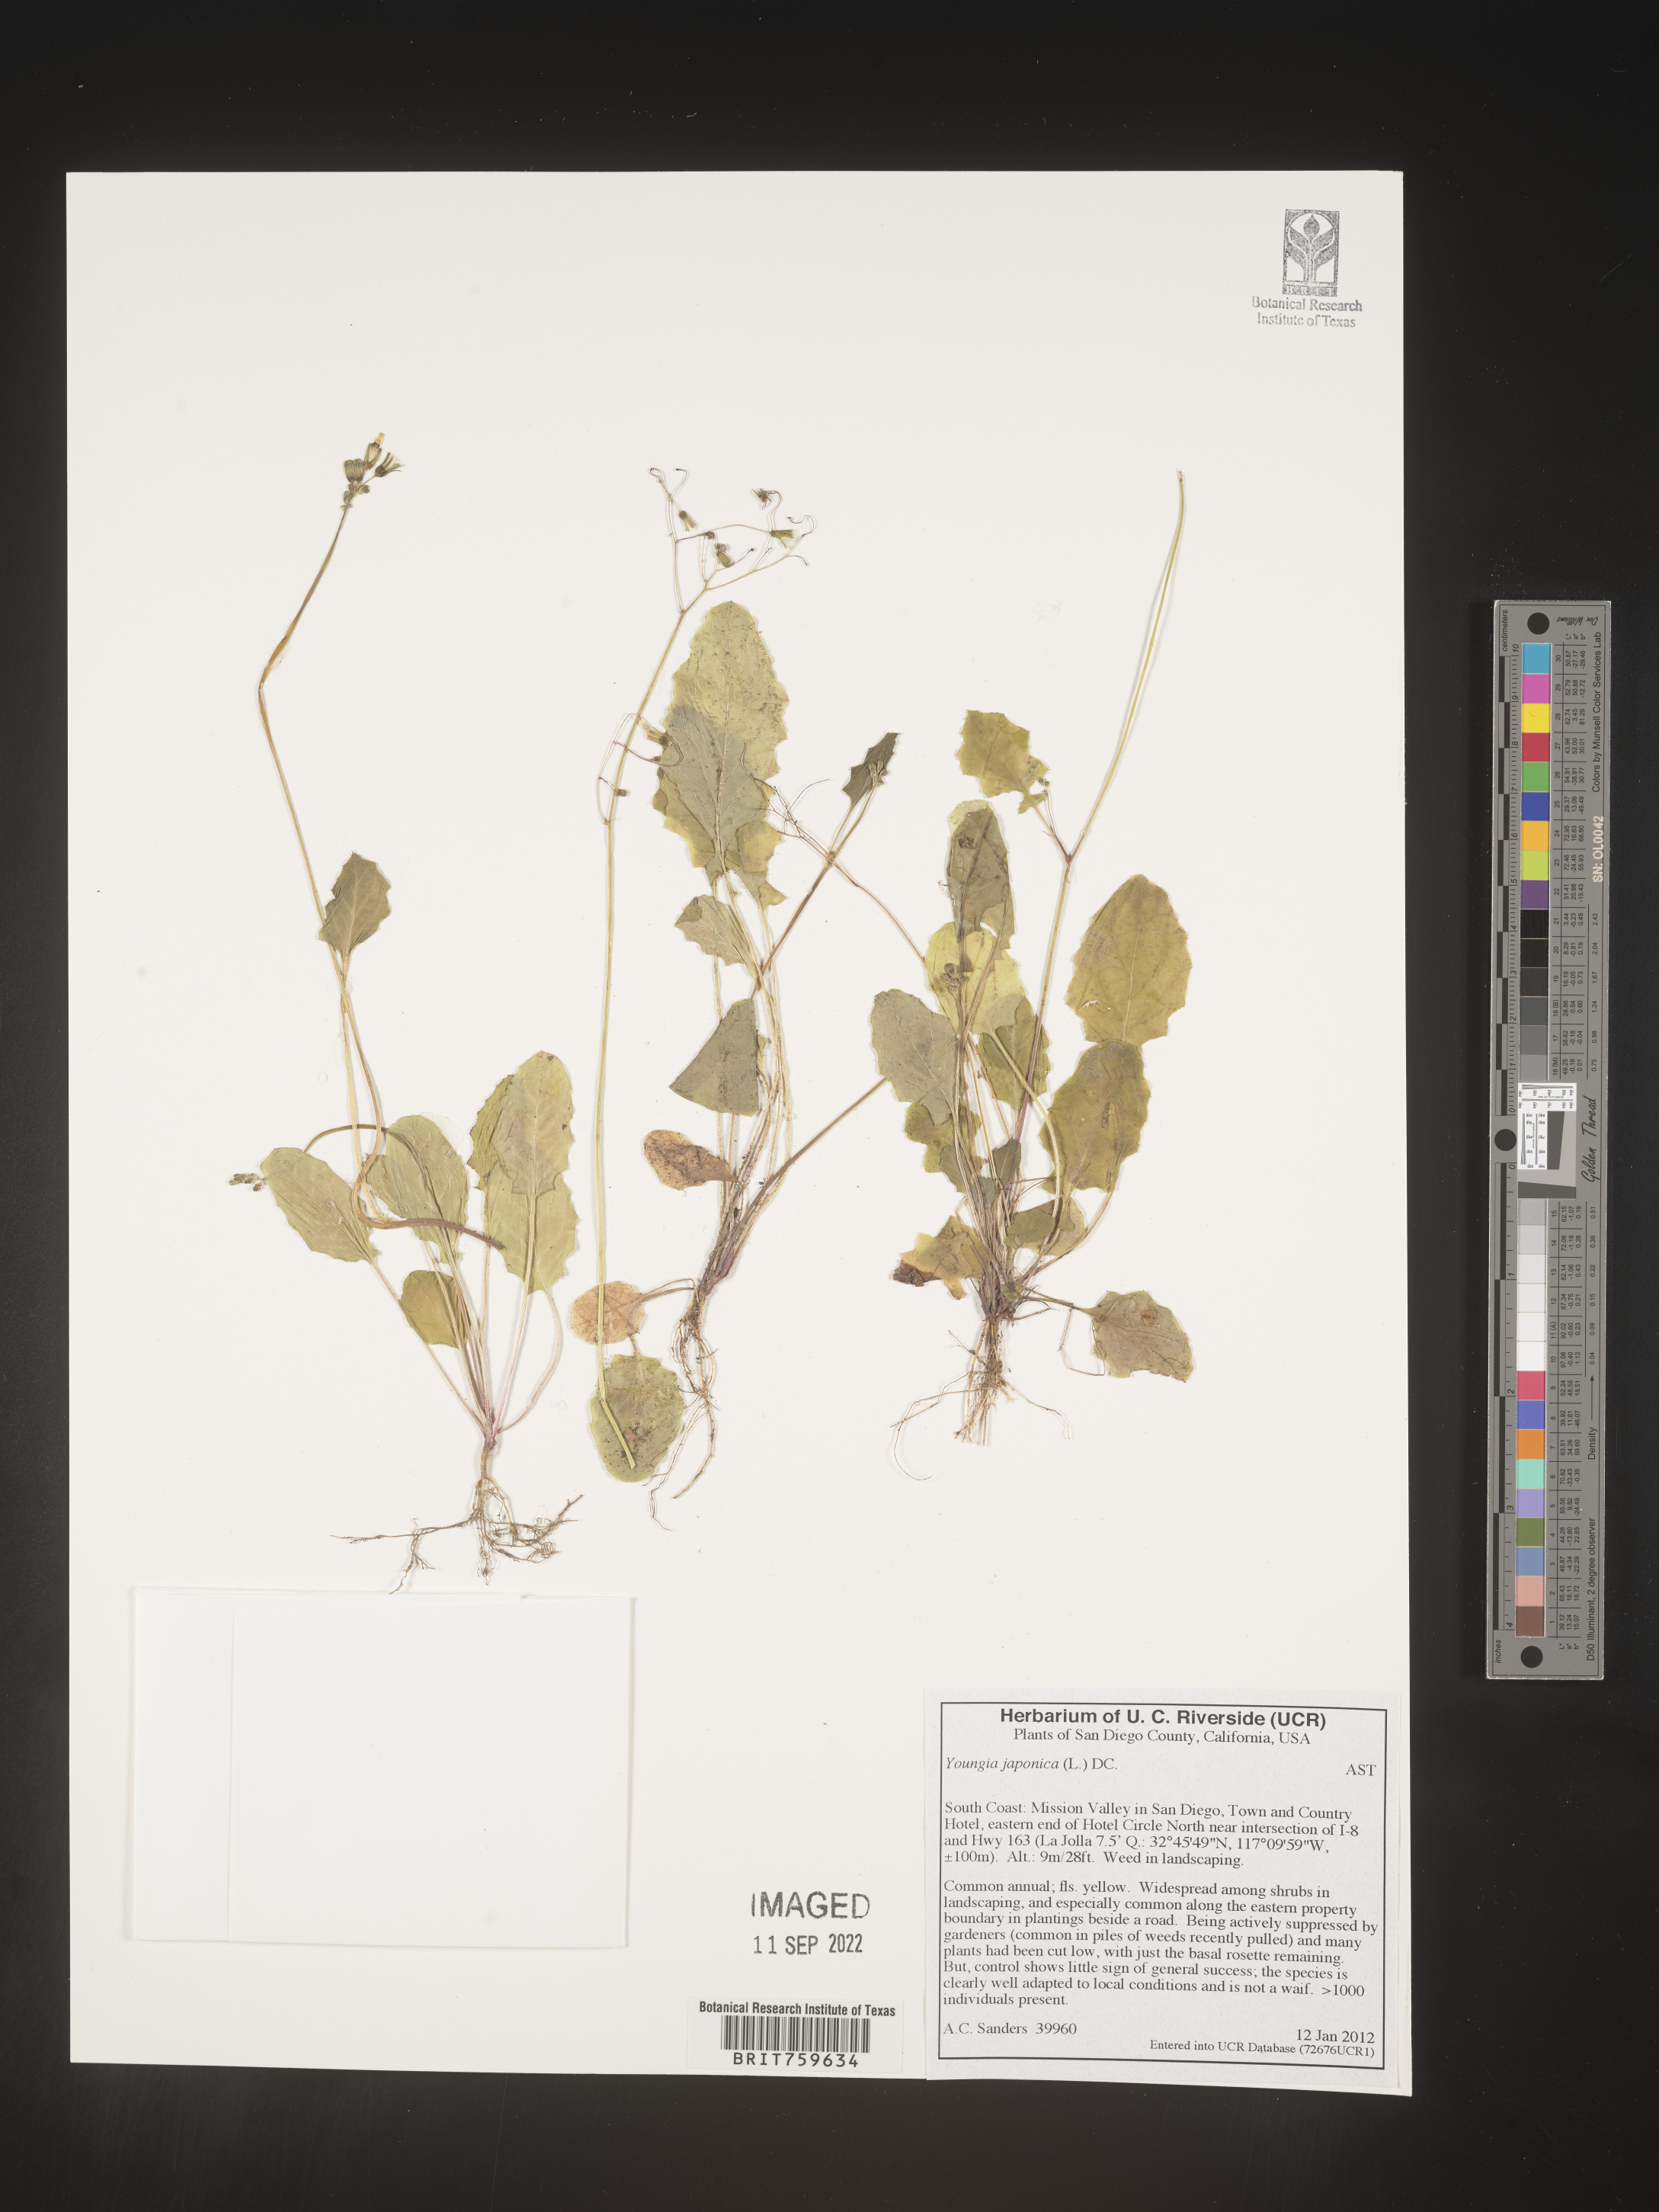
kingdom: Plantae
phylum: Tracheophyta
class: Magnoliopsida
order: Asterales
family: Asteraceae
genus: Youngia
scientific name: Youngia japonica
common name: Oriental false hawksbeard
